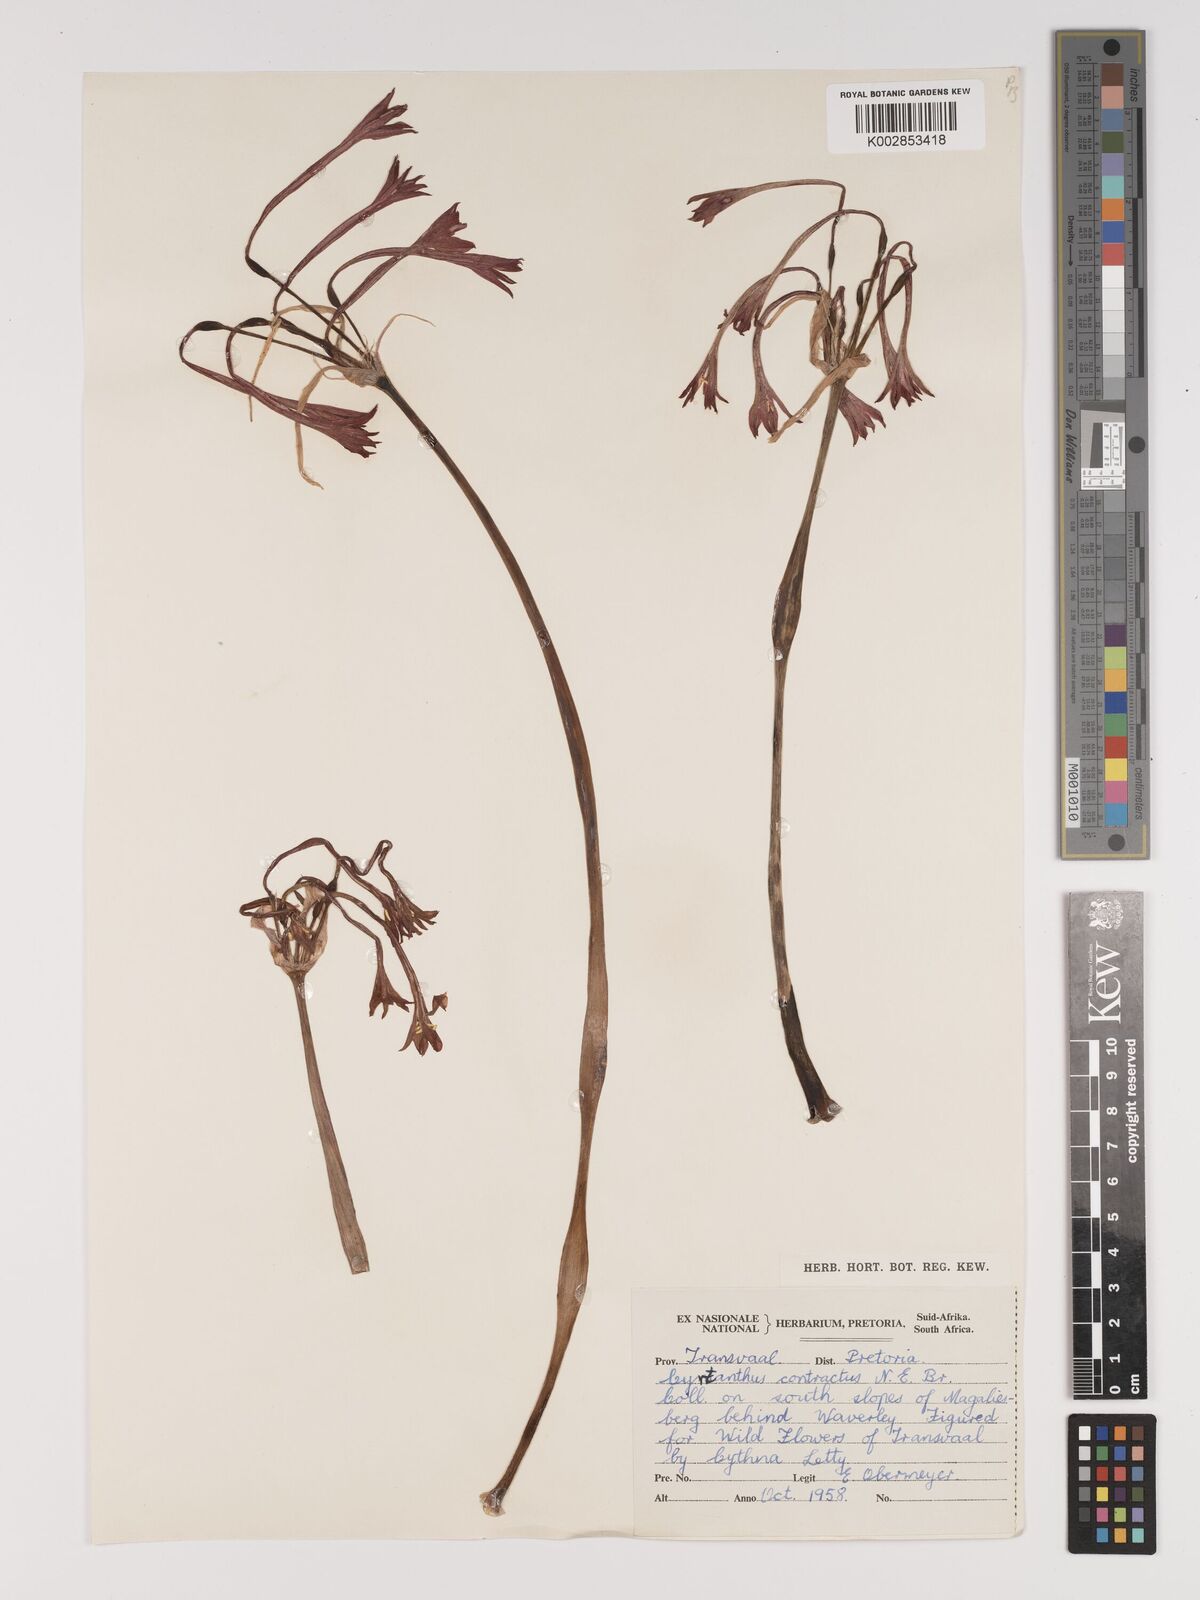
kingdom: Plantae
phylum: Tracheophyta
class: Liliopsida
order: Asparagales
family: Amaryllidaceae
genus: Cyrtanthus
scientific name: Cyrtanthus contractus
